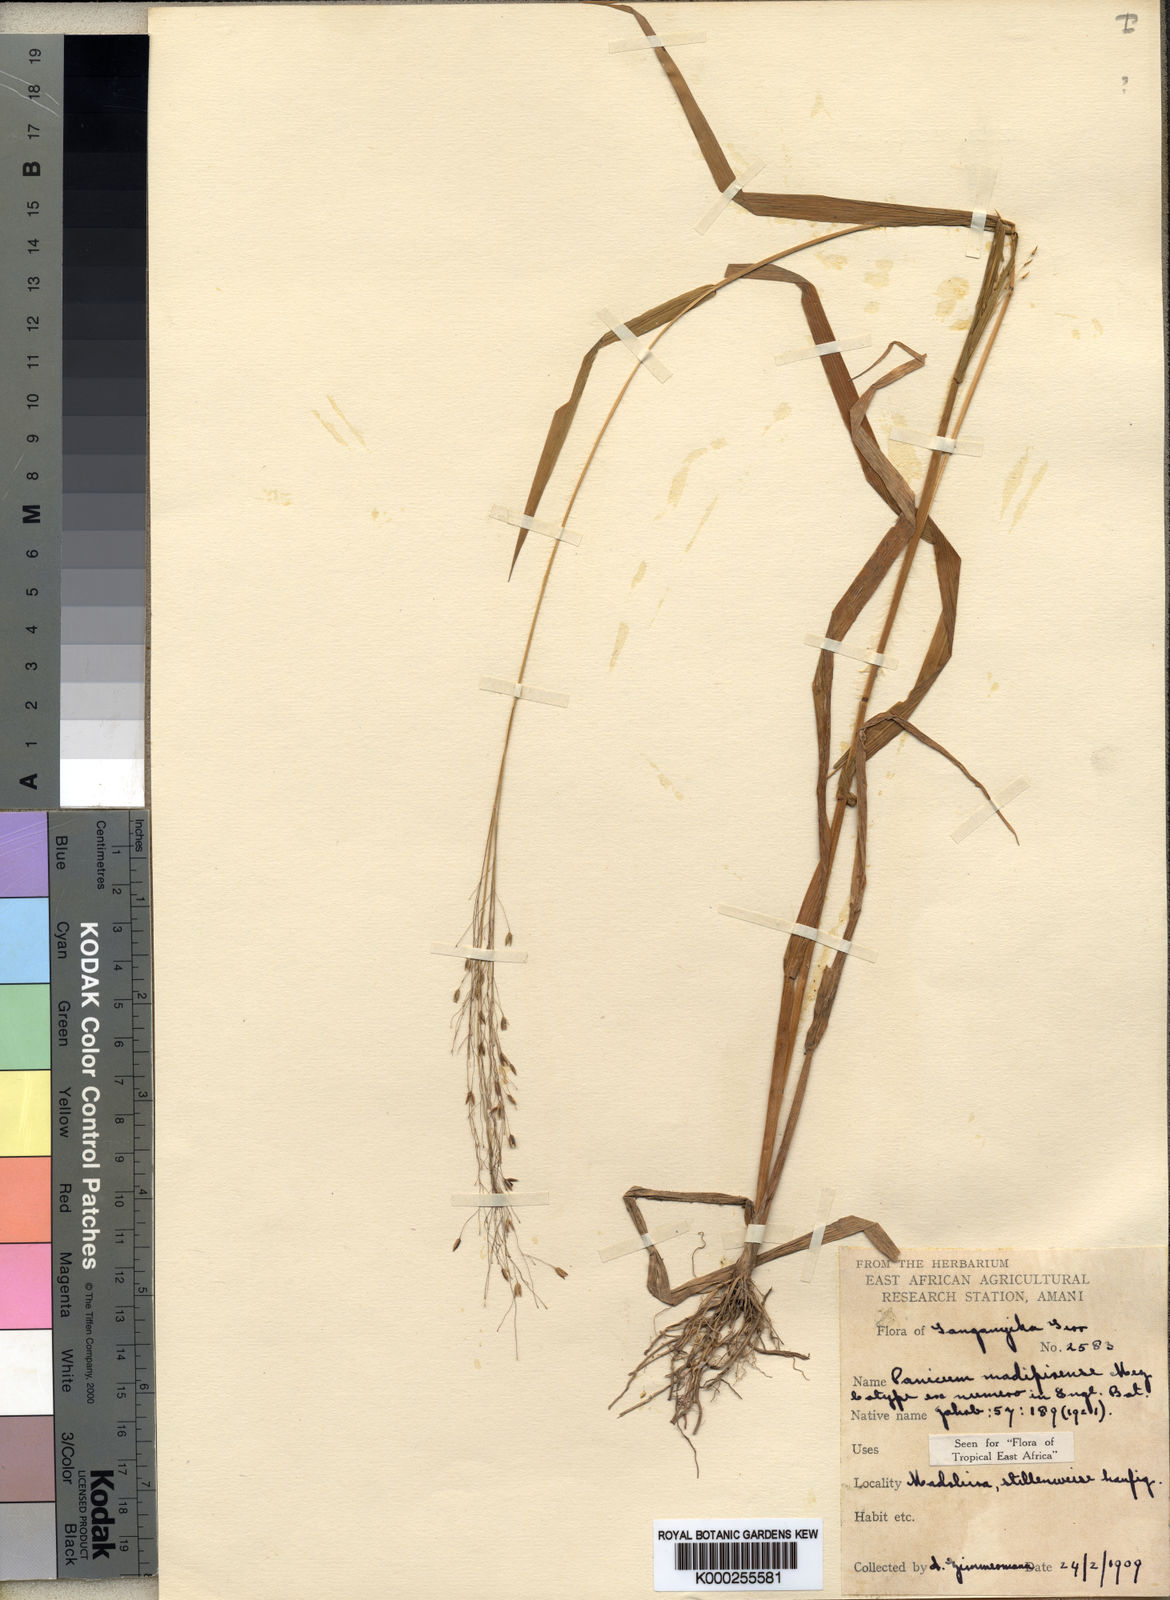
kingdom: Plantae
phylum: Tracheophyta
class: Liliopsida
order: Poales
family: Poaceae
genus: Panicum
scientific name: Panicum madipirense
